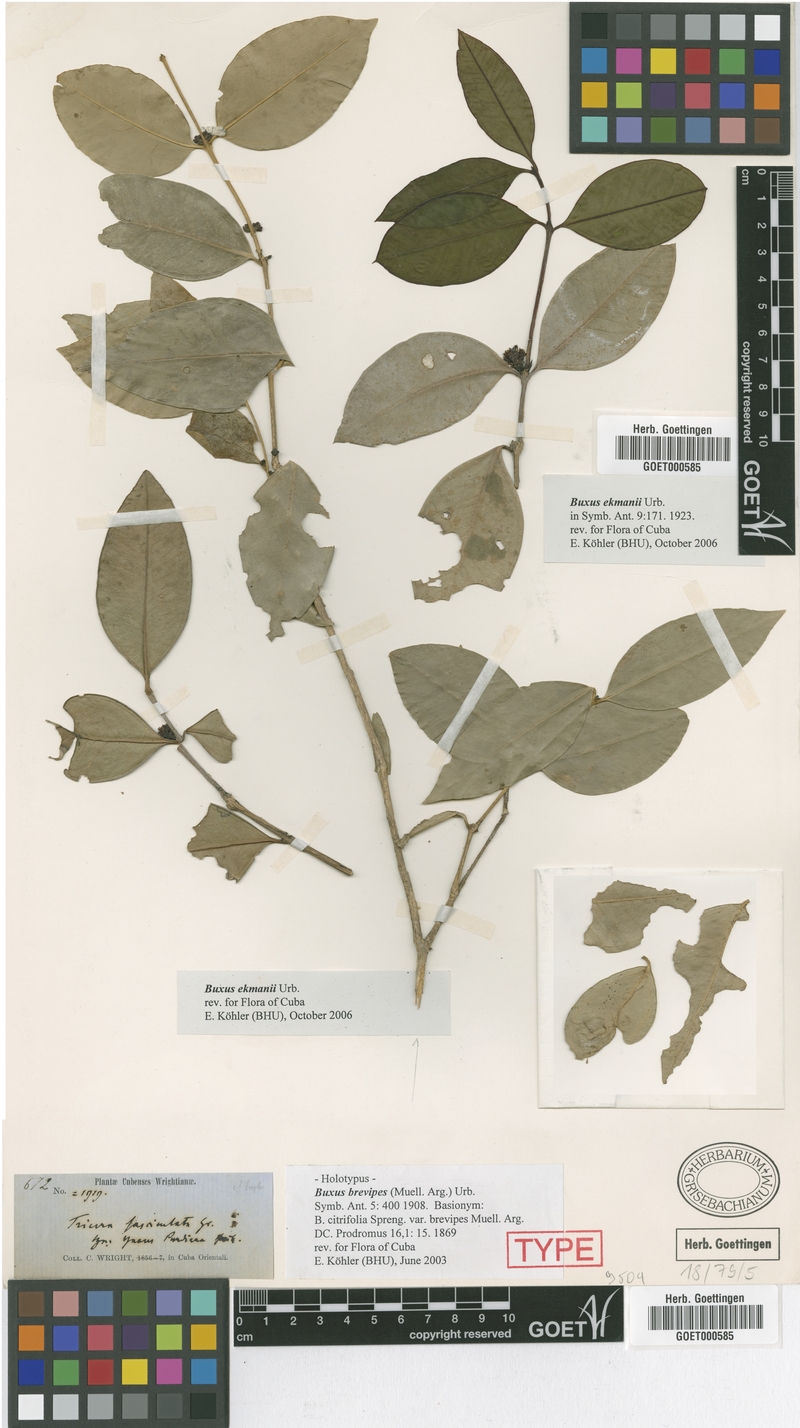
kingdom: Plantae
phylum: Tracheophyta
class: Magnoliopsida
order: Buxales
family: Buxaceae
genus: Buxus
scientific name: Buxus brevipes
